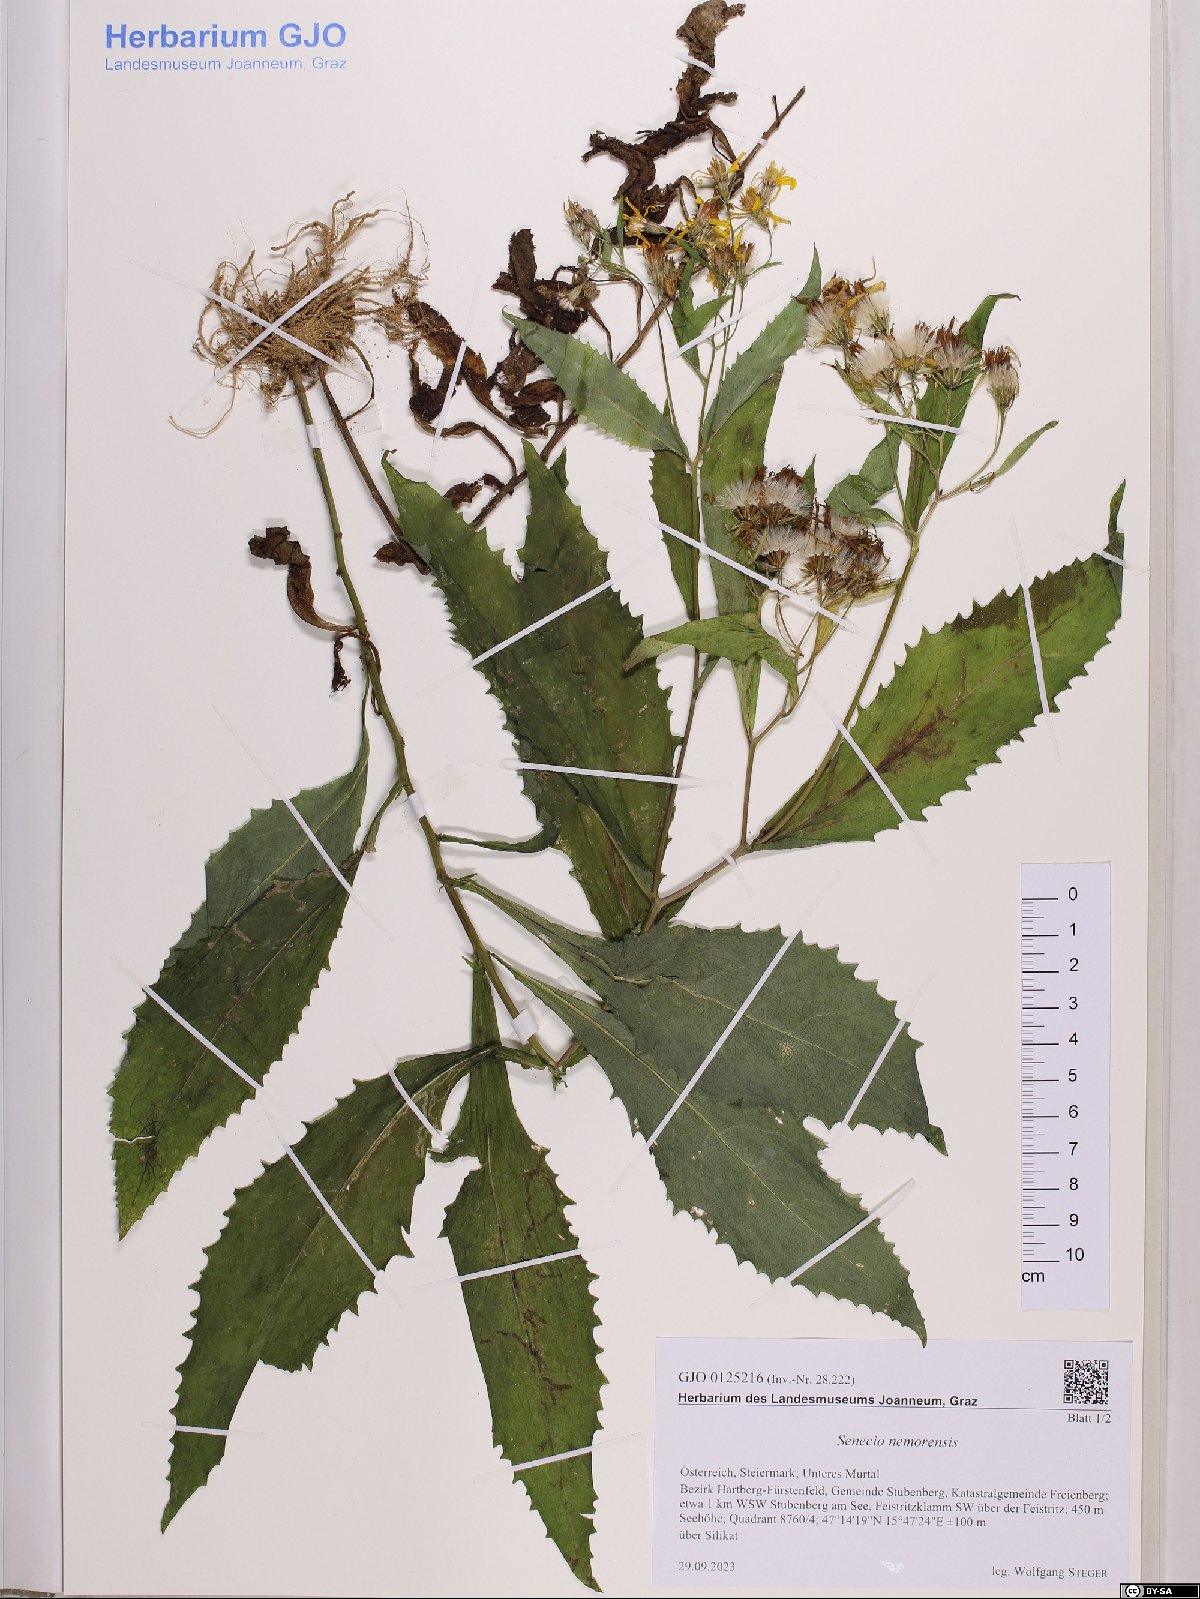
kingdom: Plantae
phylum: Tracheophyta
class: Magnoliopsida
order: Asterales
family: Asteraceae
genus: Senecio
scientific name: Senecio nemorensis
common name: Alpine ragwort
